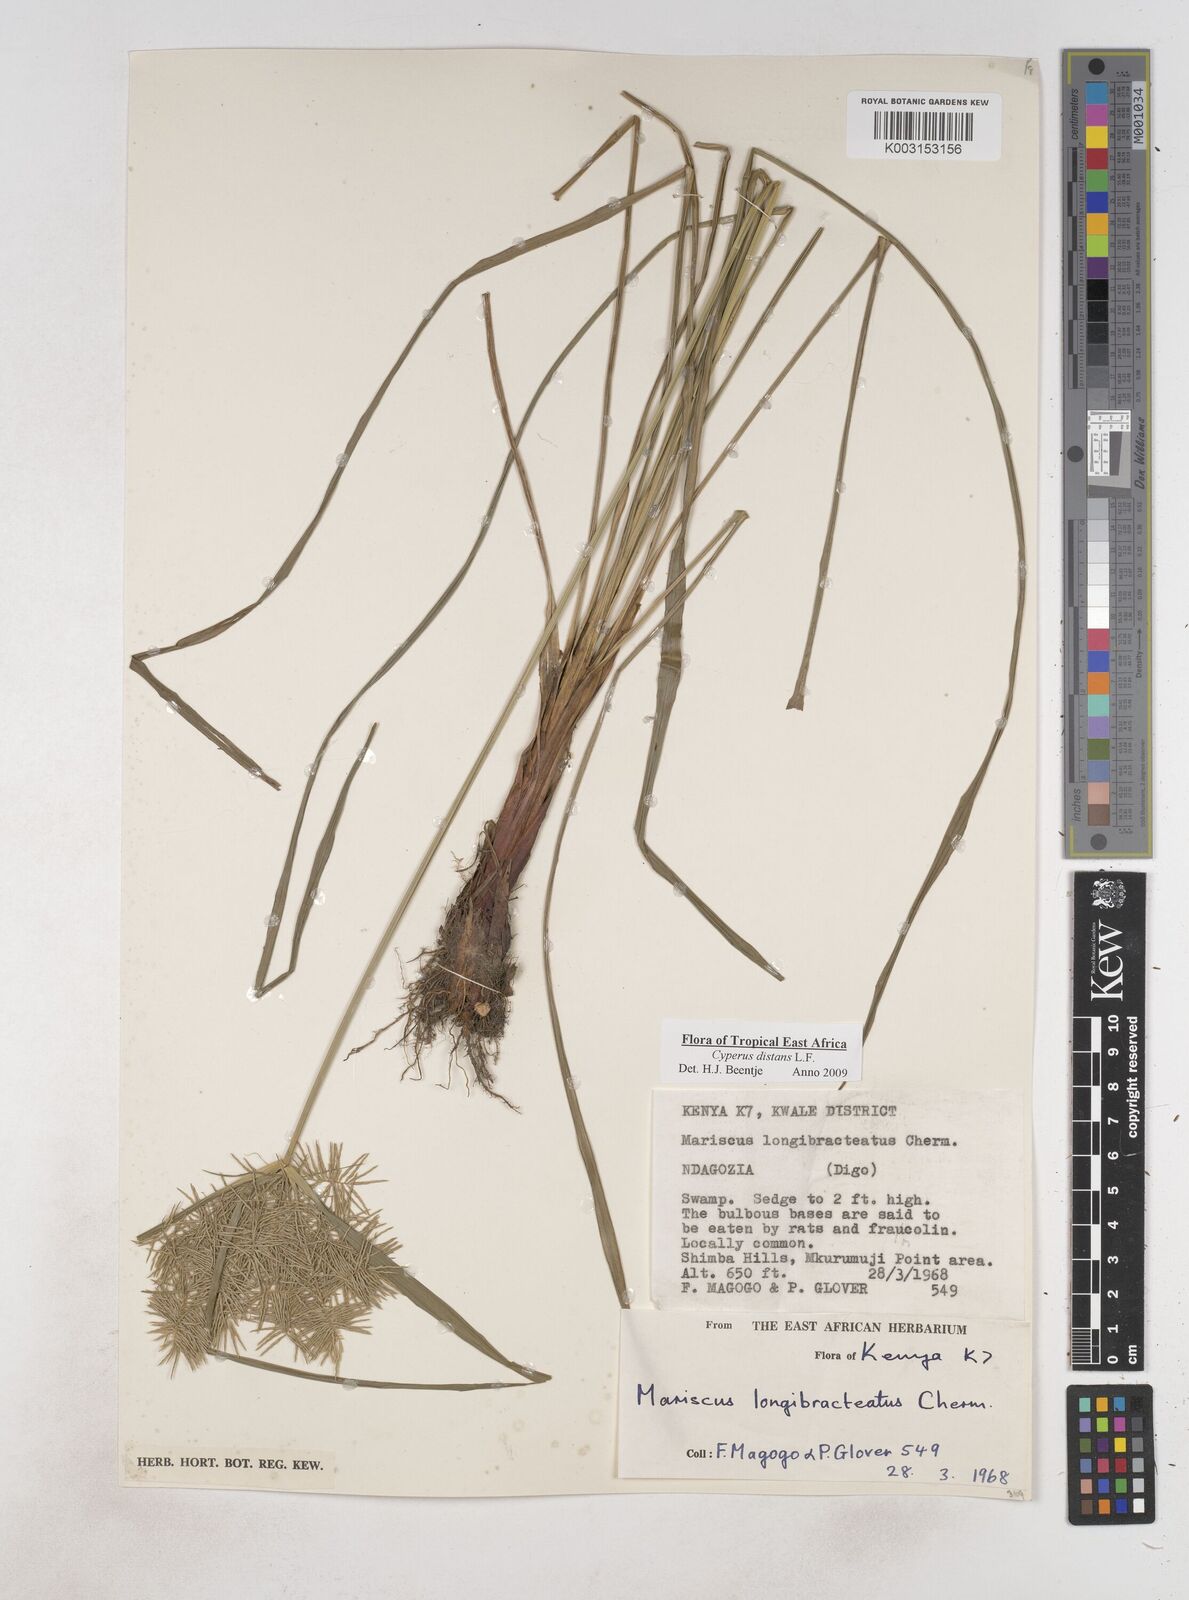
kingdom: Plantae
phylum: Tracheophyta
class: Liliopsida
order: Poales
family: Cyperaceae
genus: Cyperus
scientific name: Cyperus distans
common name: Slender cyperus
